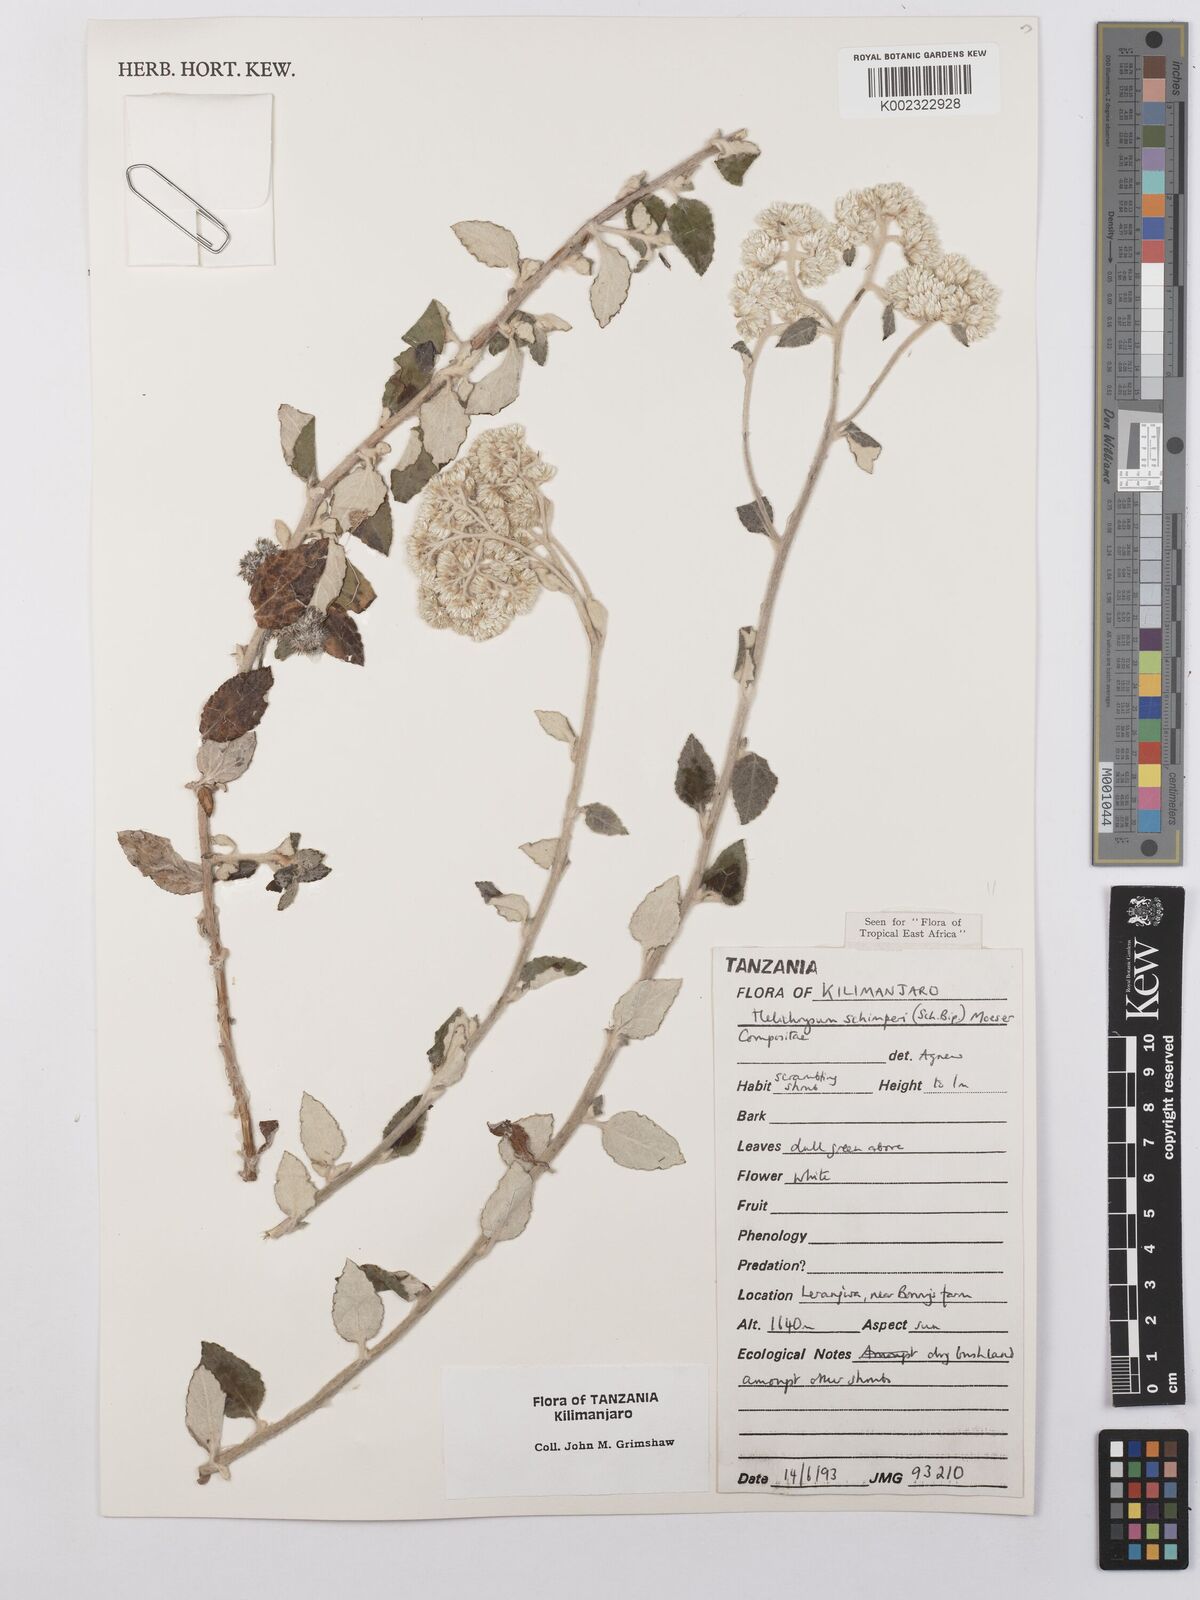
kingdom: Plantae
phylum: Tracheophyta
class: Magnoliopsida
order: Asterales
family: Asteraceae
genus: Helichrysum
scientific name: Helichrysum schimperi
